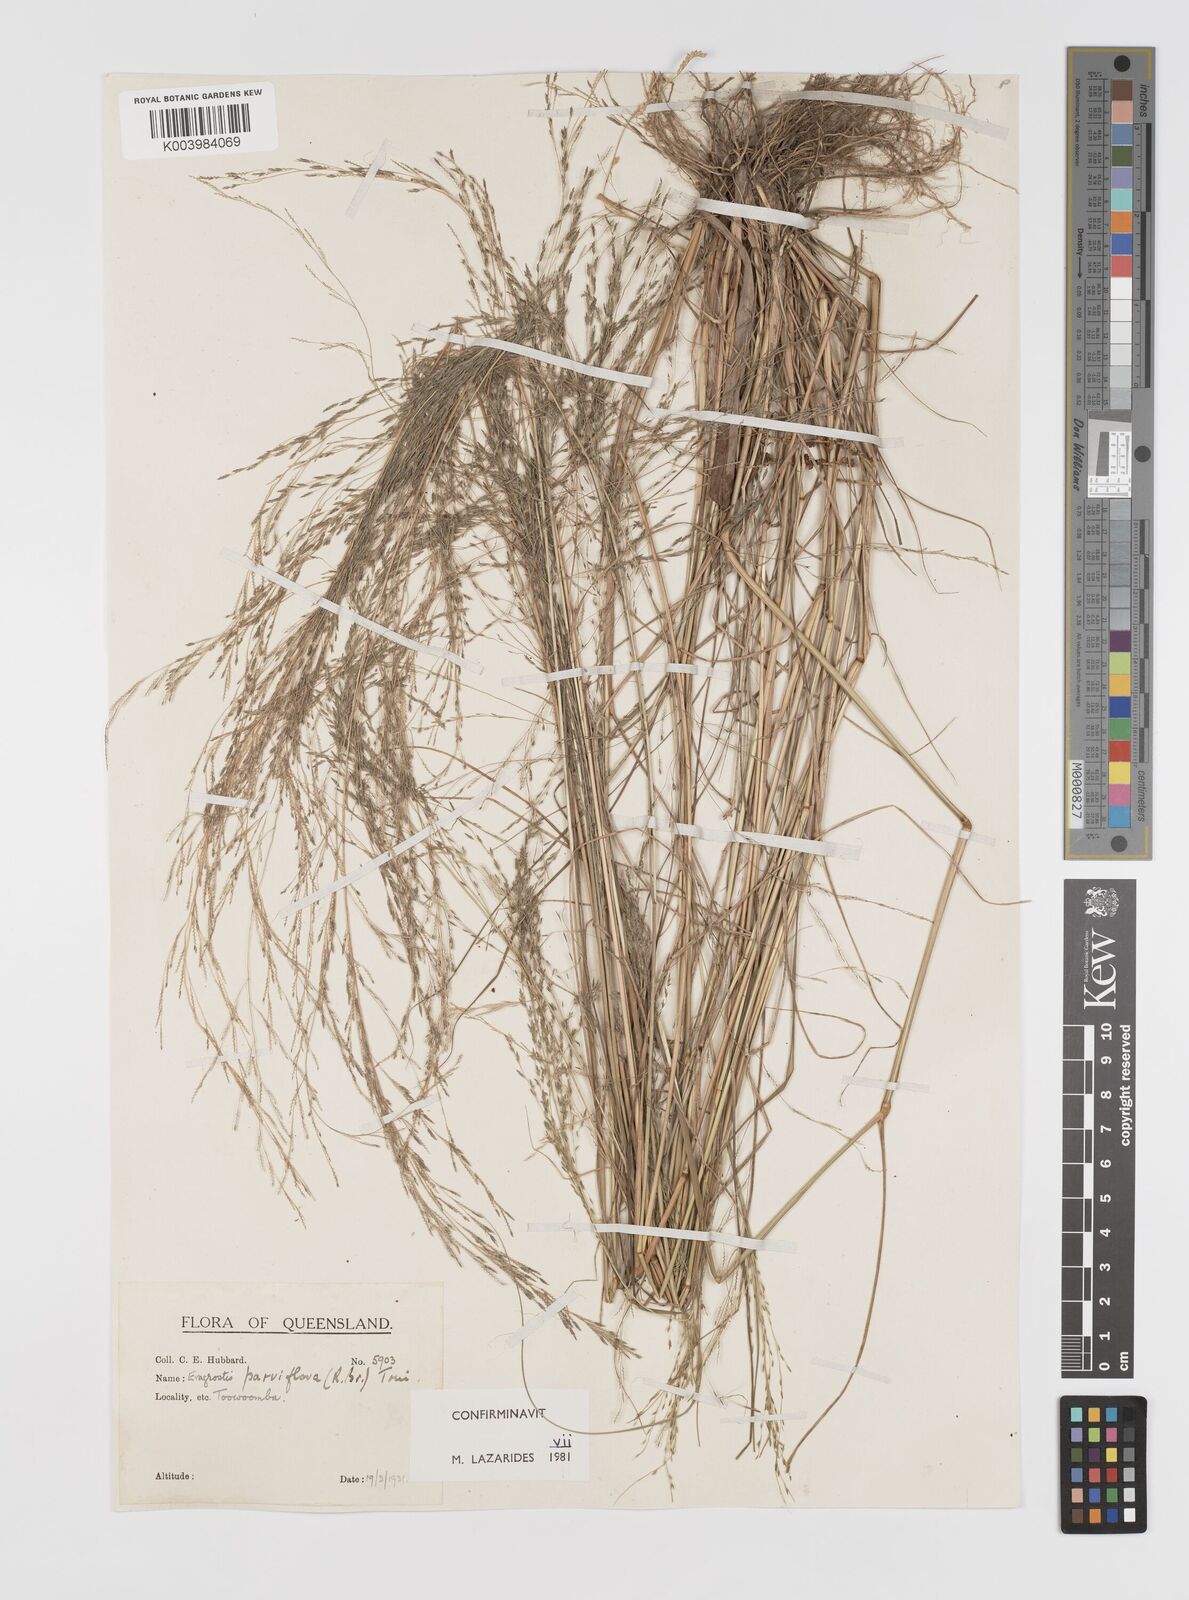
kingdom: Plantae
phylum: Tracheophyta
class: Liliopsida
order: Poales
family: Poaceae
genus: Eragrostis
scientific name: Eragrostis parviflora
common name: Weeping love-grass
